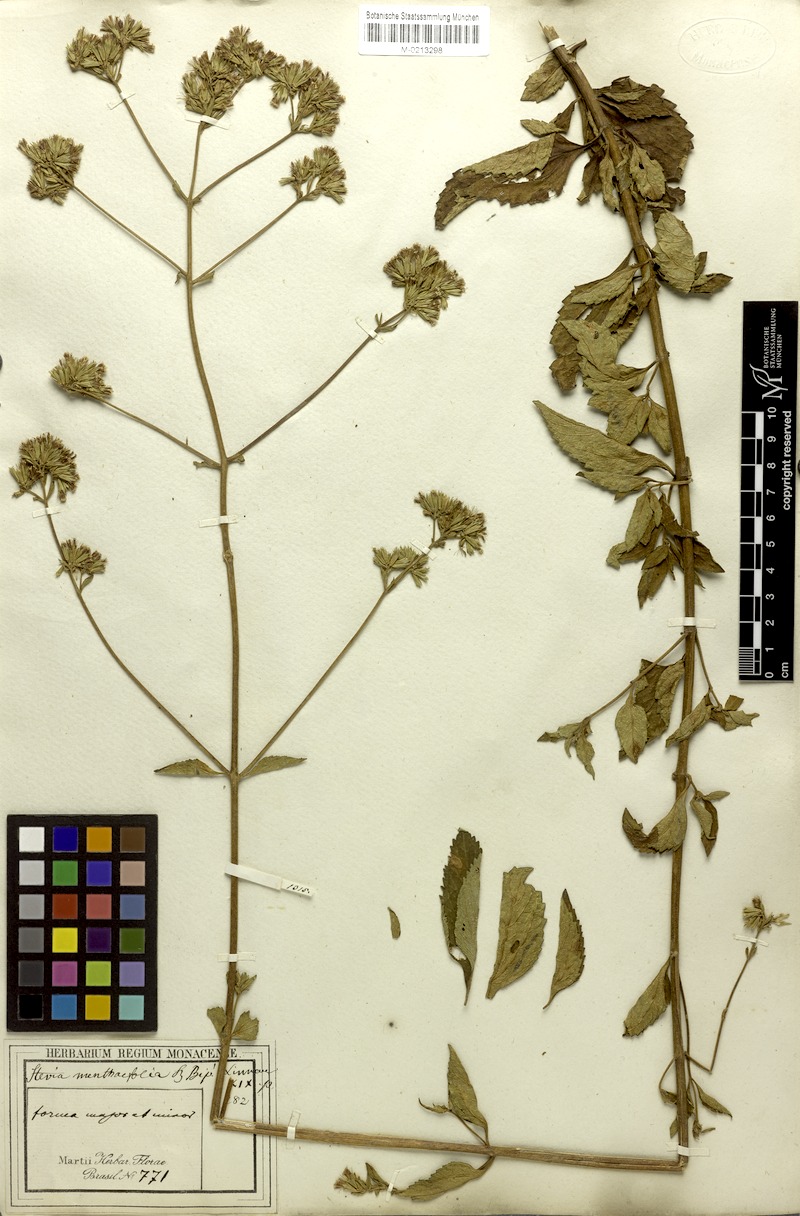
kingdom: Plantae
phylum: Tracheophyta
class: Magnoliopsida
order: Asterales
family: Asteraceae
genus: Stevia
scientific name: Stevia menthaefolia
